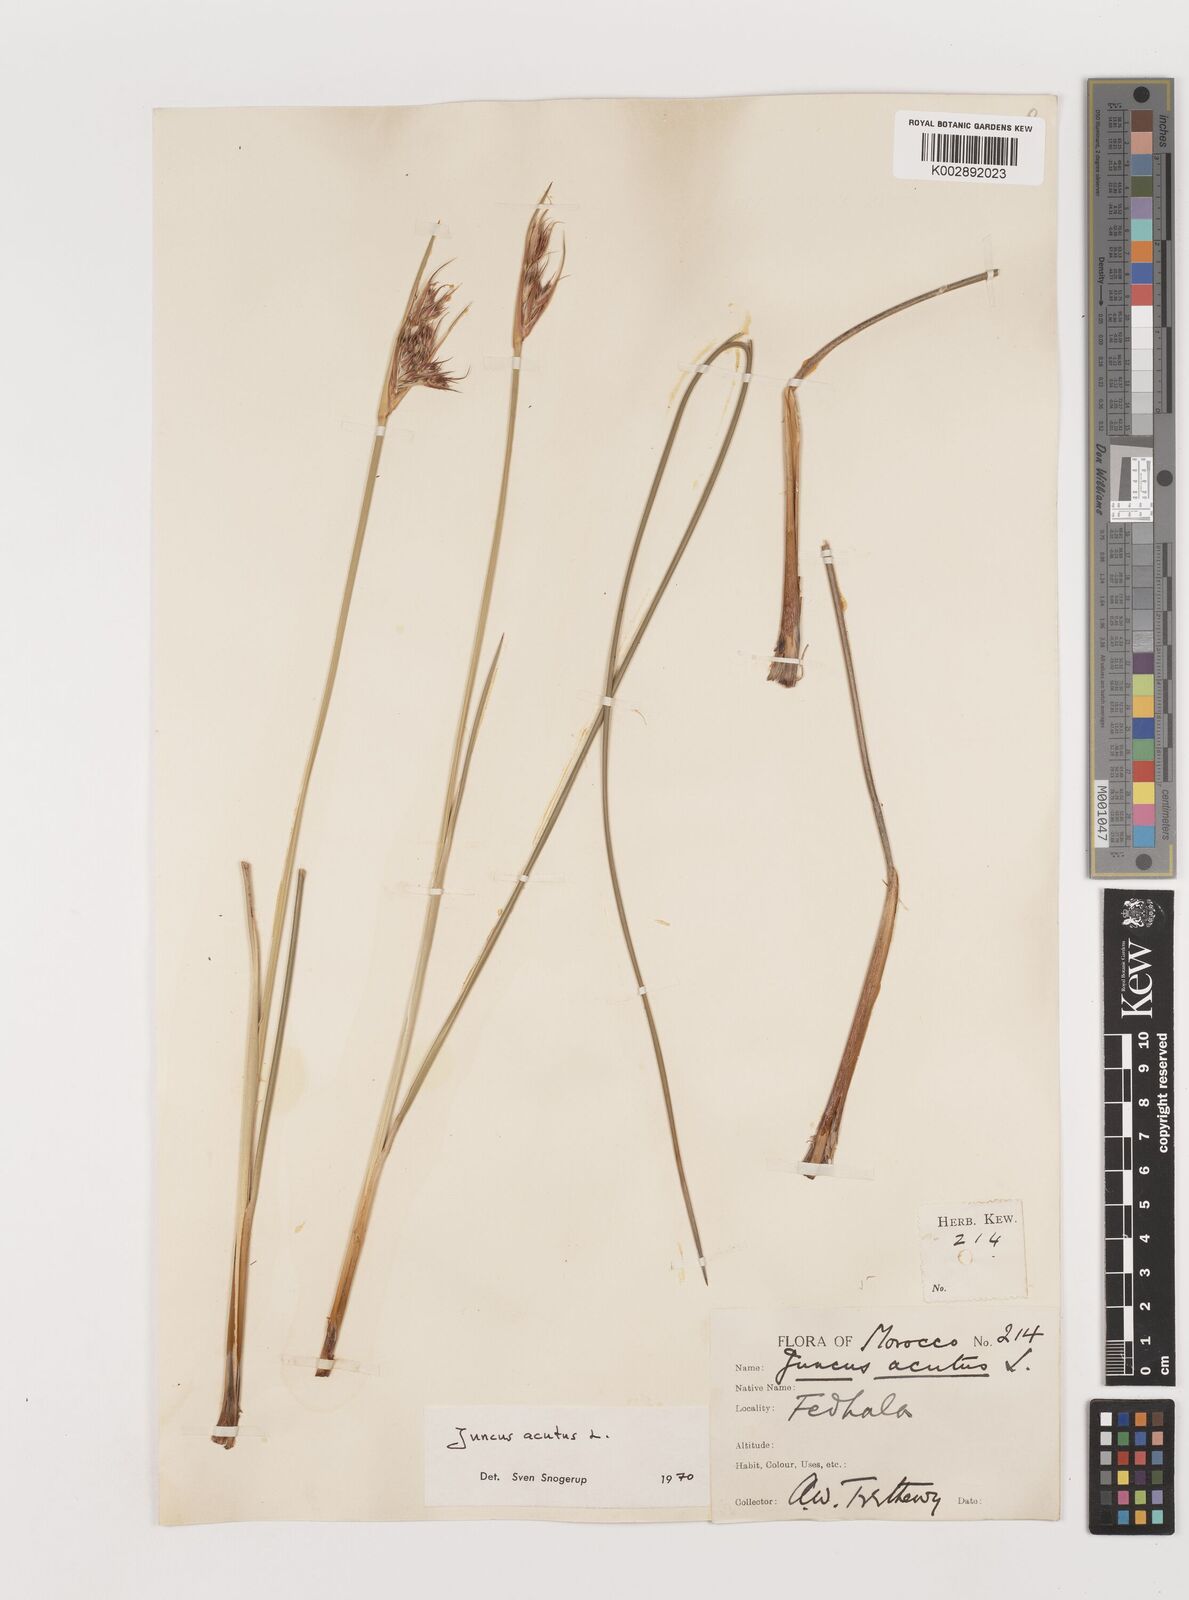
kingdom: Plantae
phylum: Tracheophyta
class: Liliopsida
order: Poales
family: Juncaceae
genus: Juncus
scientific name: Juncus acutus
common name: Sharp rush
